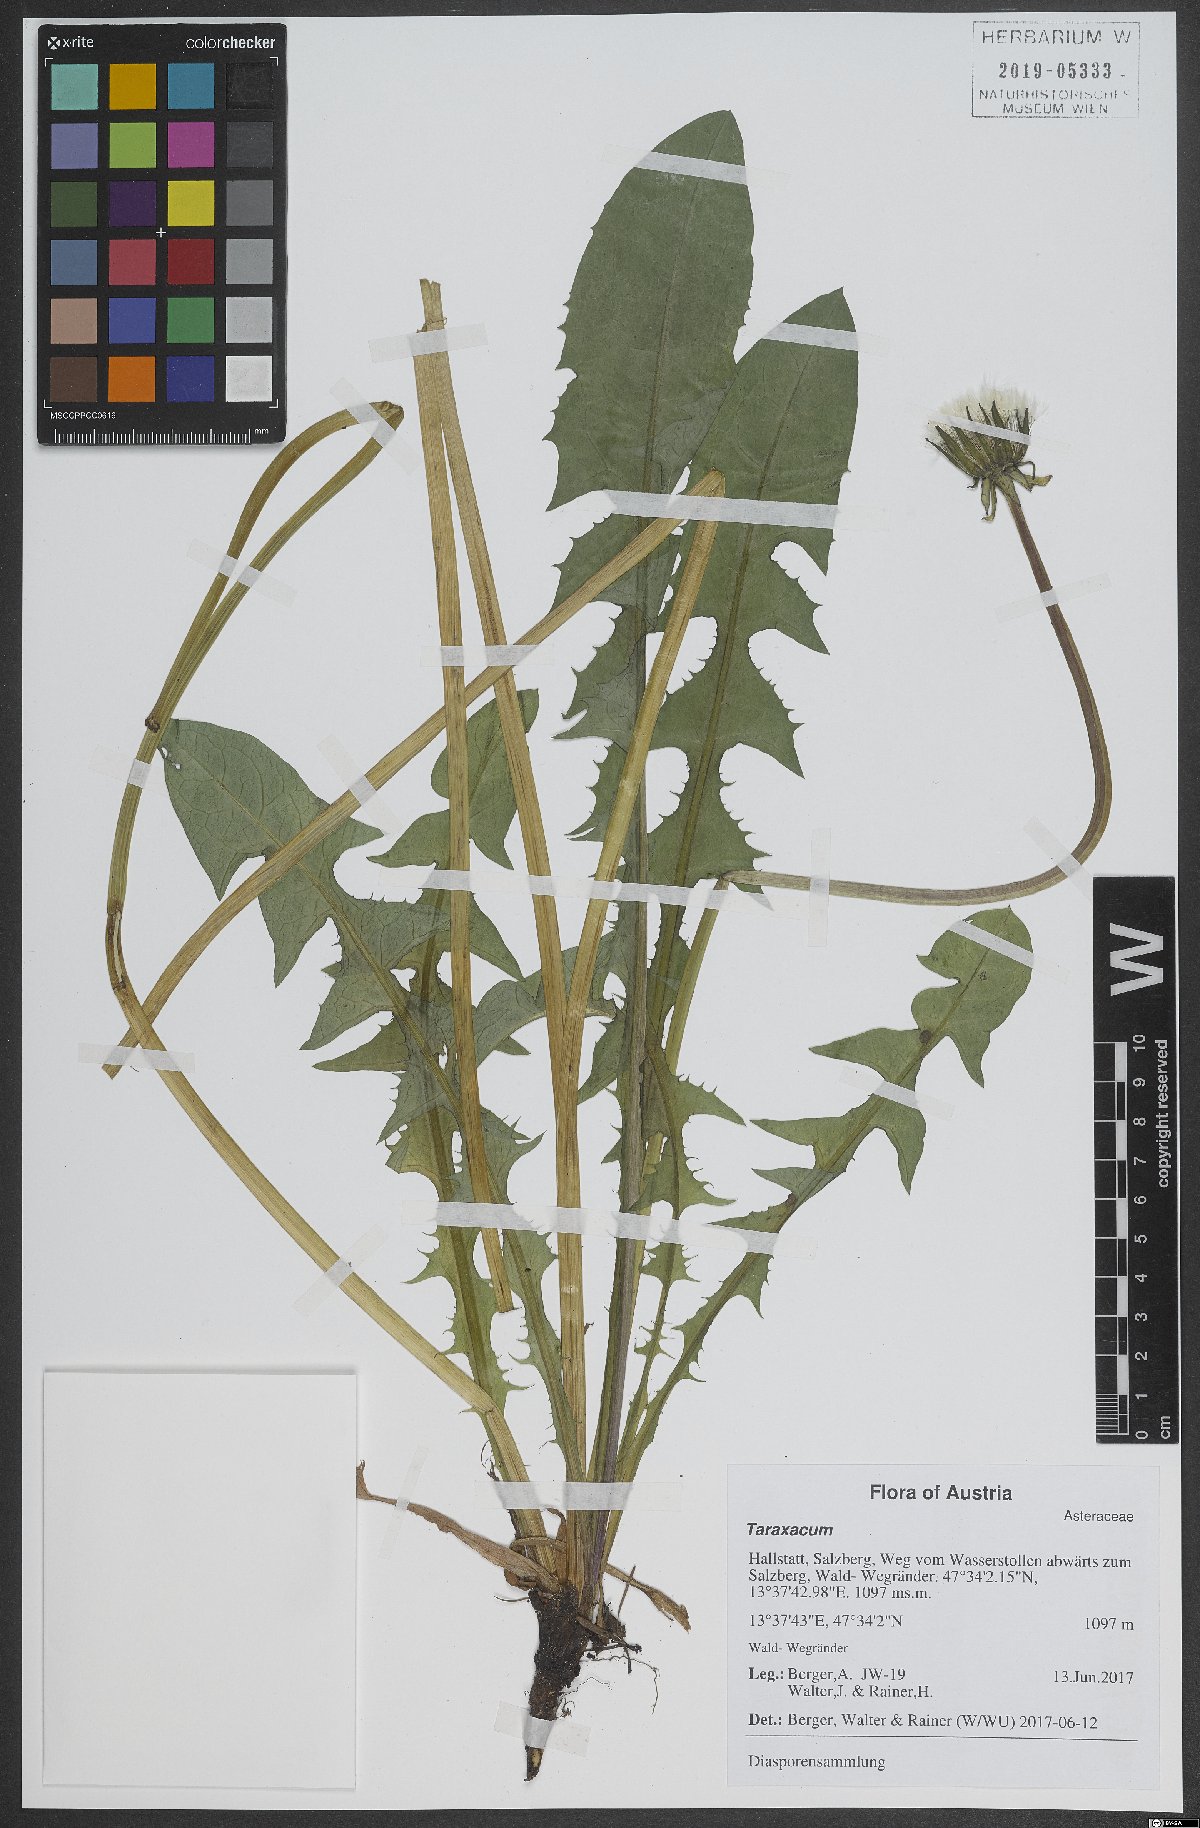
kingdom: Plantae
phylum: Tracheophyta
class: Magnoliopsida
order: Asterales
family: Asteraceae
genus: Taraxacum
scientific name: Taraxacum
